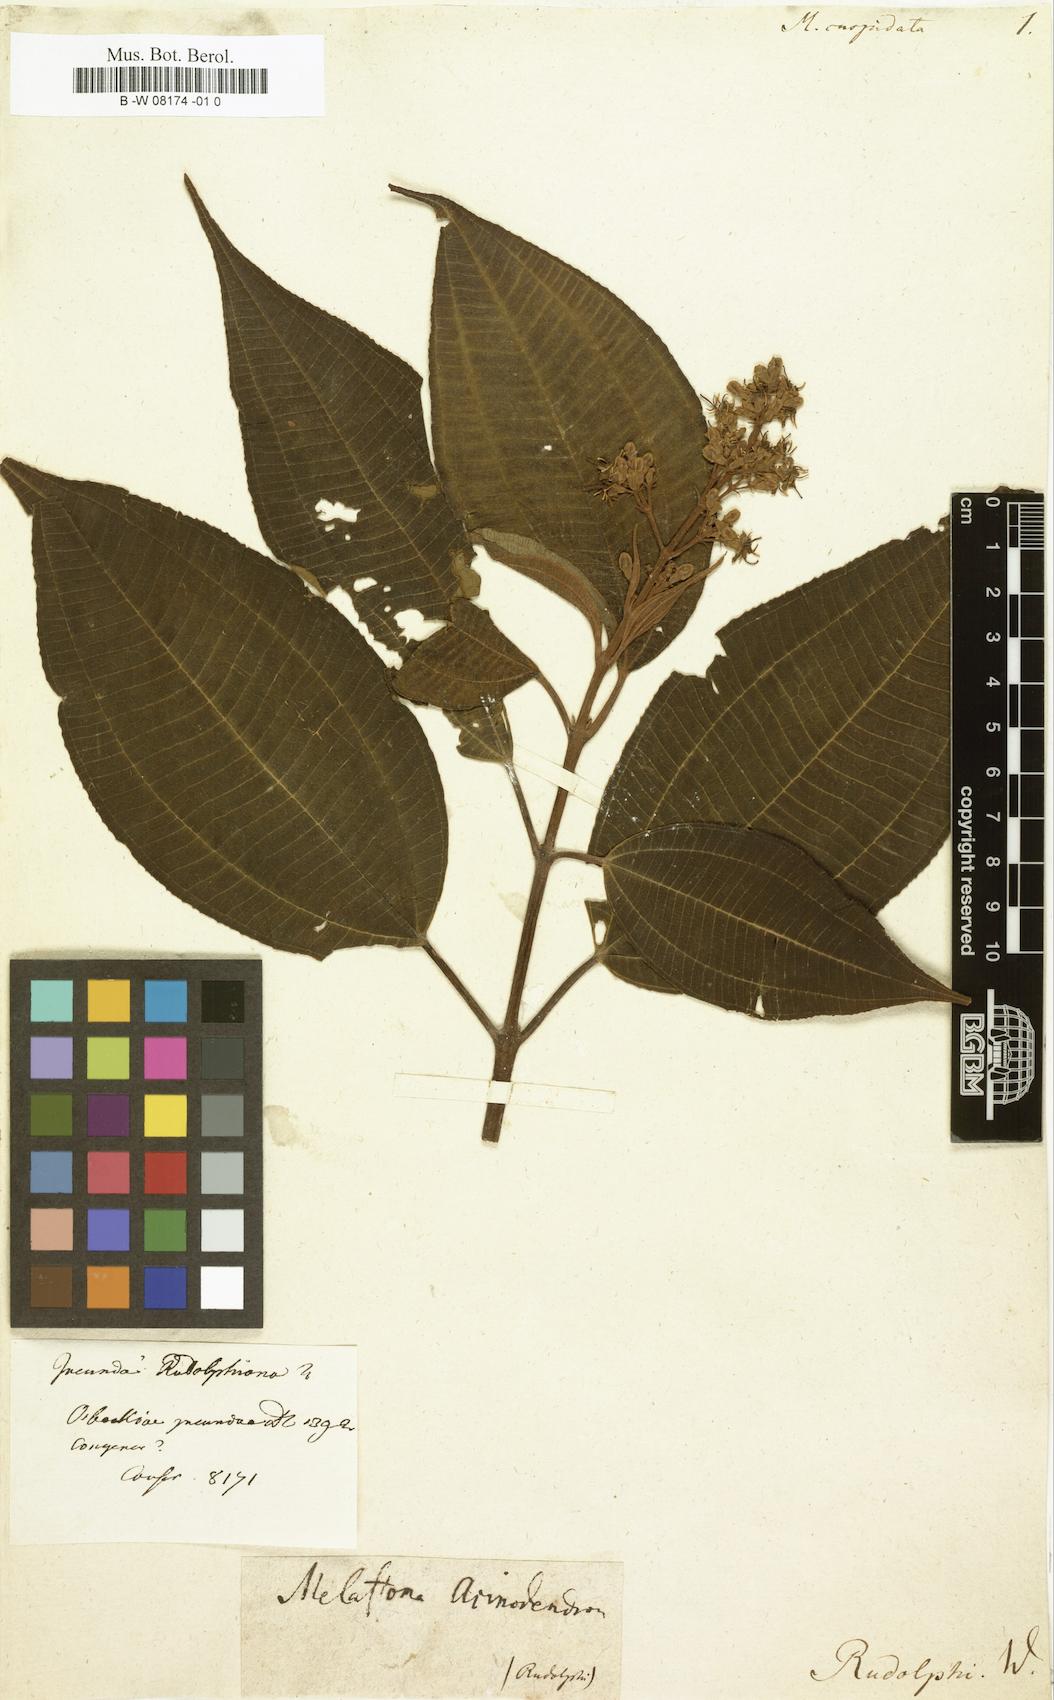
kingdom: Plantae
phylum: Tracheophyta
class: Magnoliopsida
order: Myrtales
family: Melastomataceae
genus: Miconia
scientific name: Miconia laevigata
